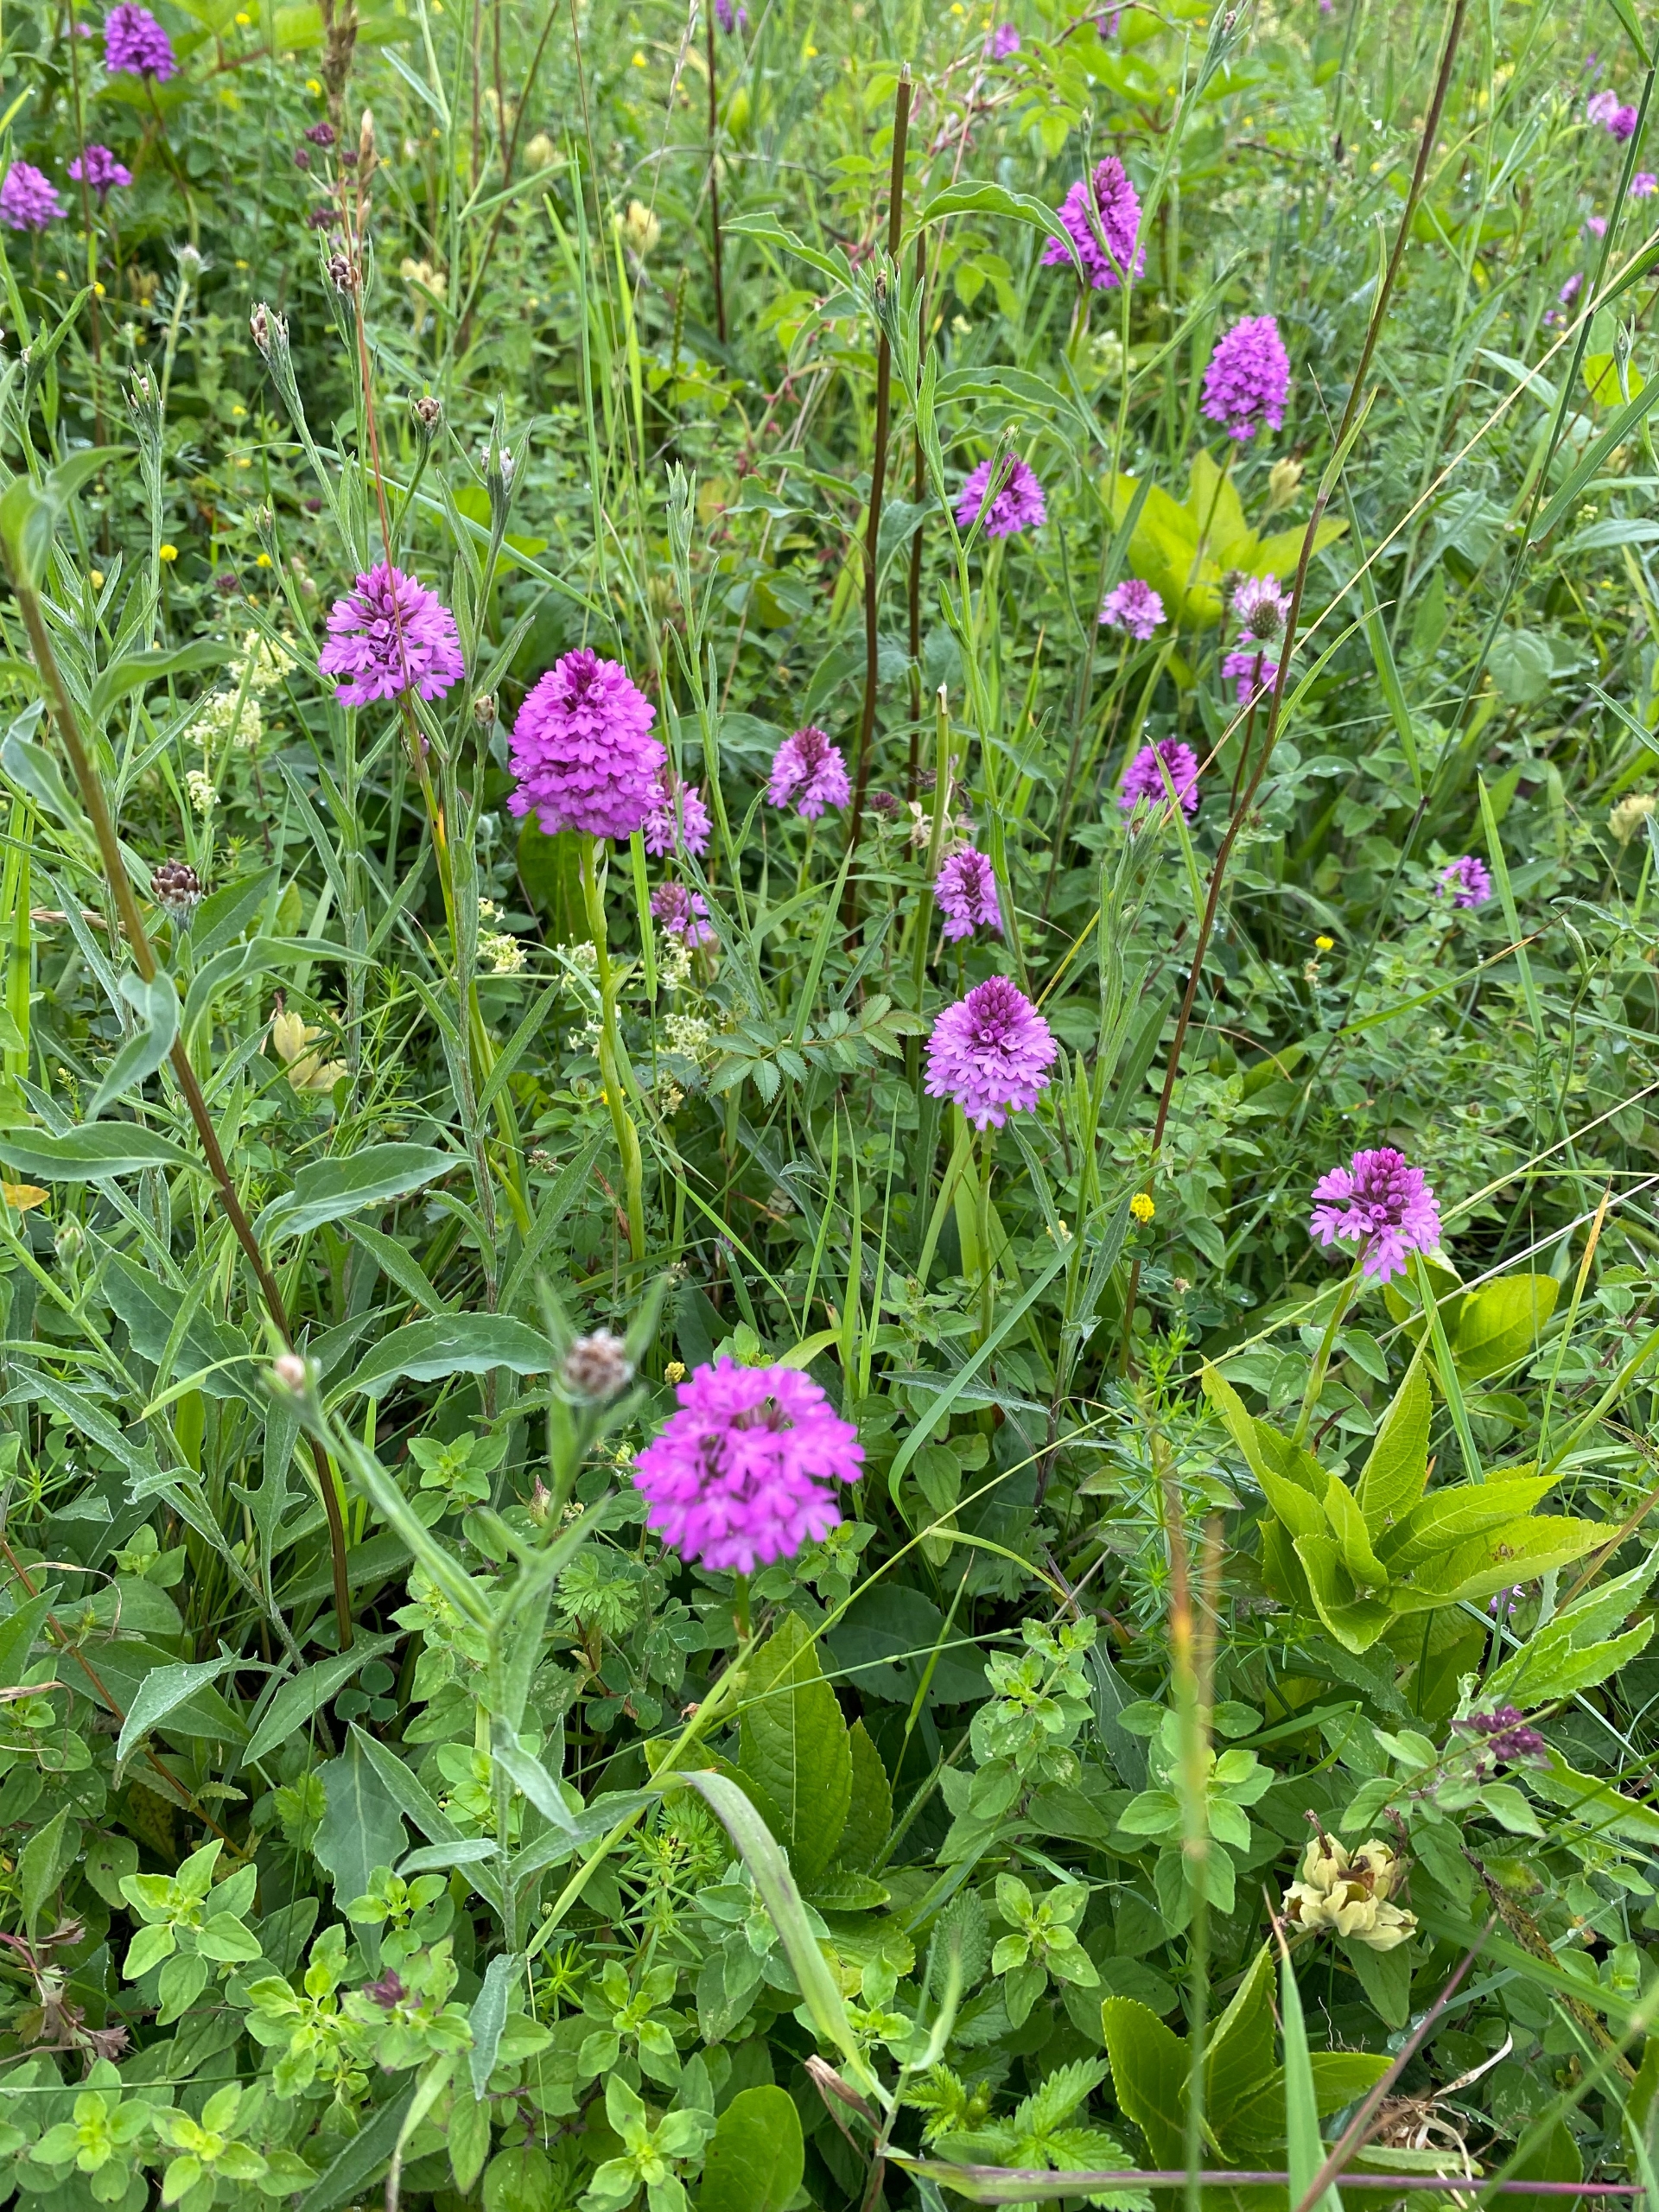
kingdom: Plantae
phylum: Tracheophyta
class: Liliopsida
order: Asparagales
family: Orchidaceae
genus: Anacamptis
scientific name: Anacamptis pyramidalis
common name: Horndrager
